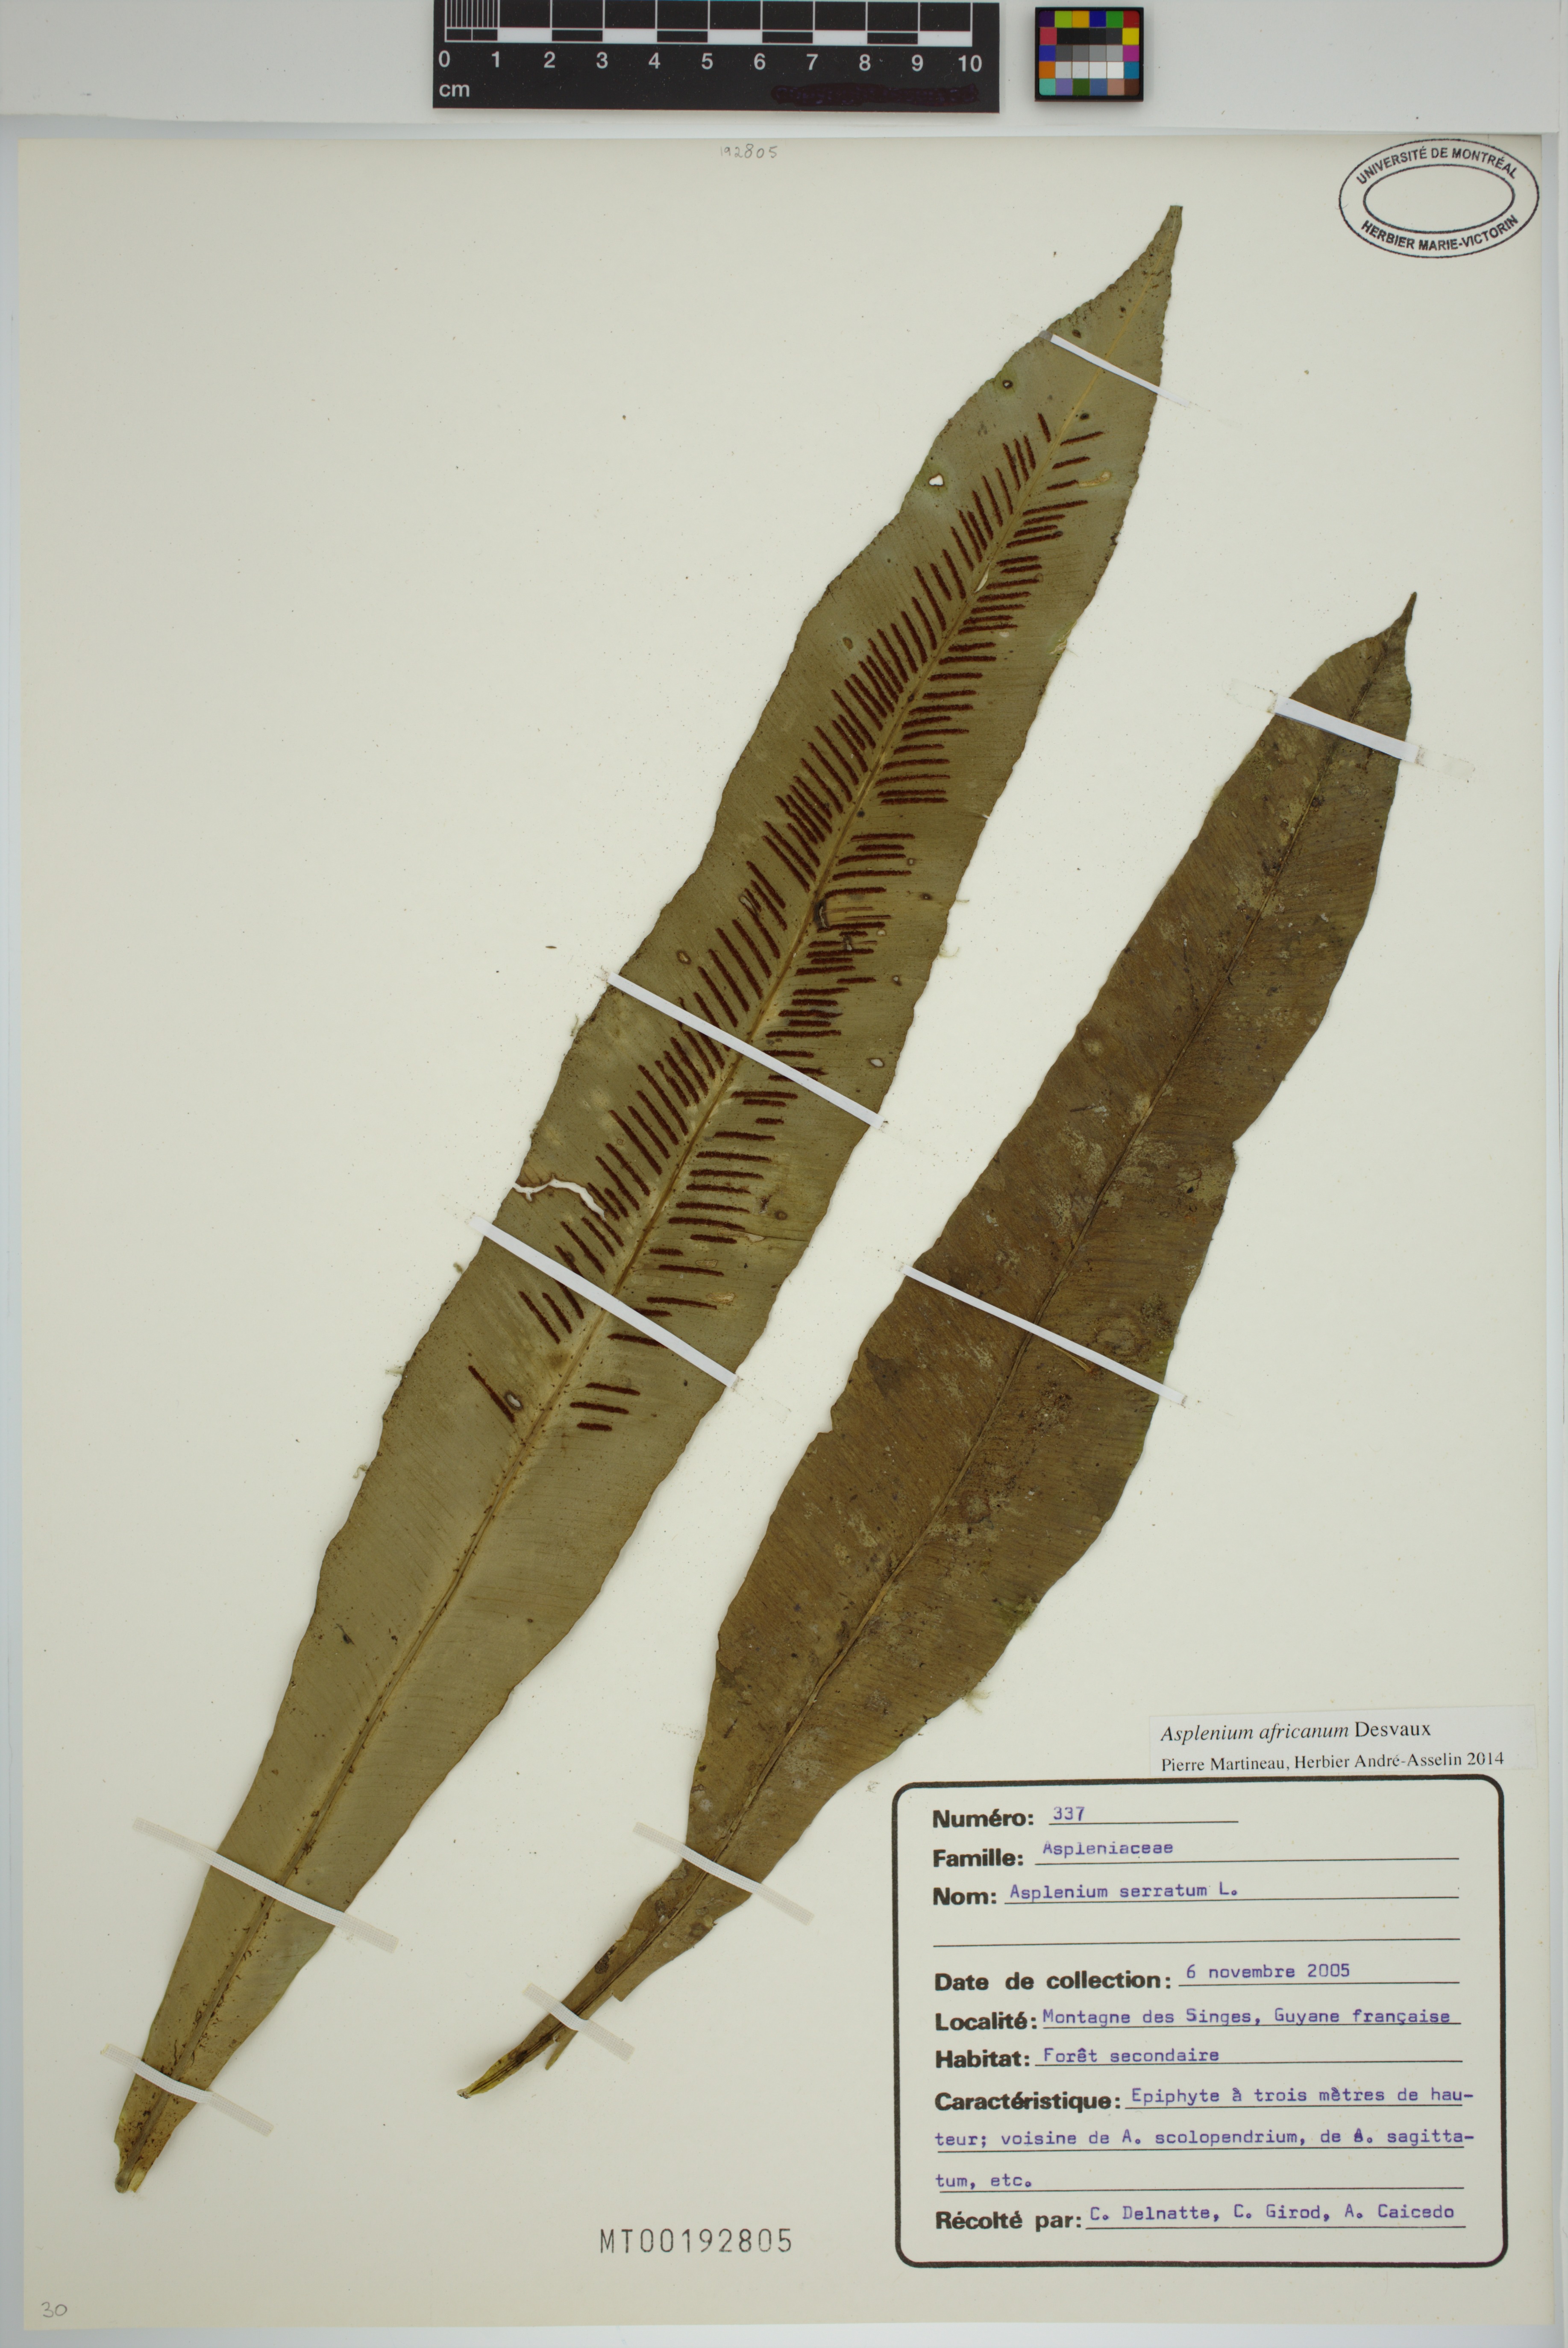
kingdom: Plantae
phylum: Tracheophyta
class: Polypodiopsida
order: Polypodiales
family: Aspleniaceae
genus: Asplenium
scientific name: Asplenium serratum
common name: Wild birdnest fern
